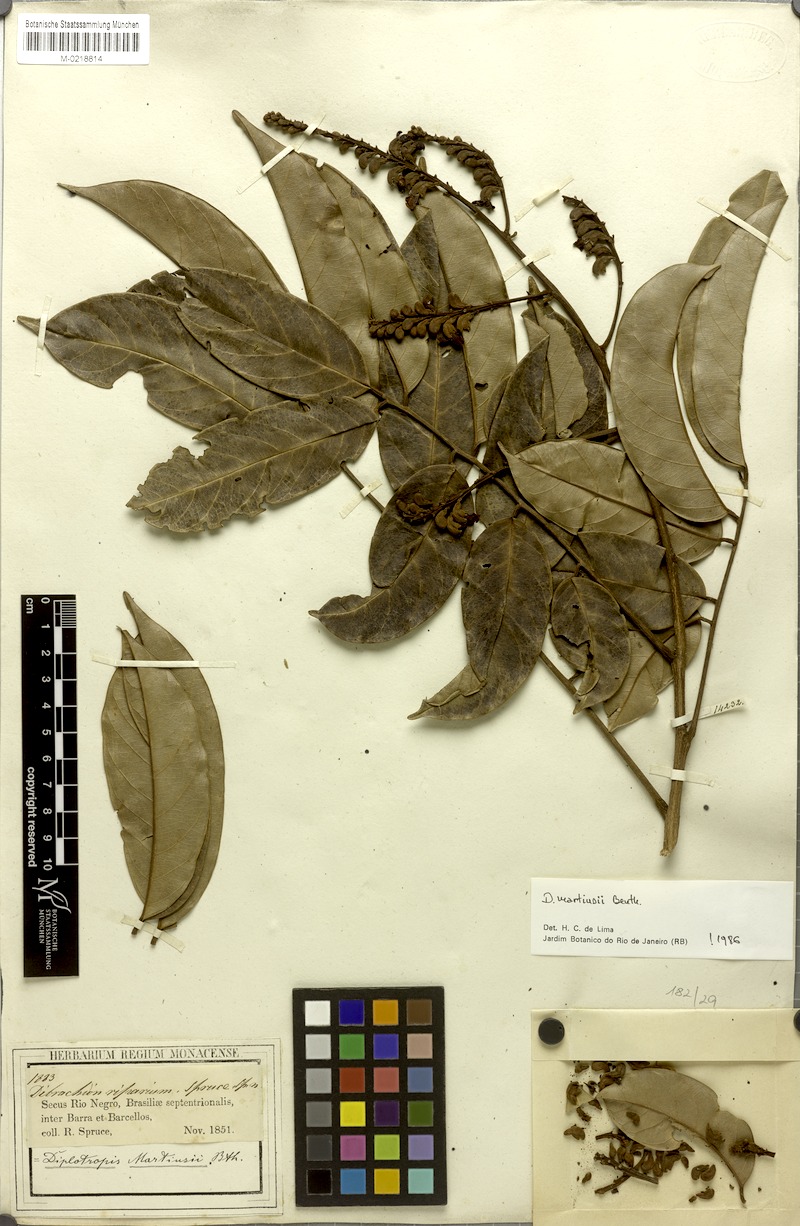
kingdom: Plantae
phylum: Tracheophyta
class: Magnoliopsida
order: Fabales
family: Fabaceae
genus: Diplotropis
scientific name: Diplotropis martiusii
